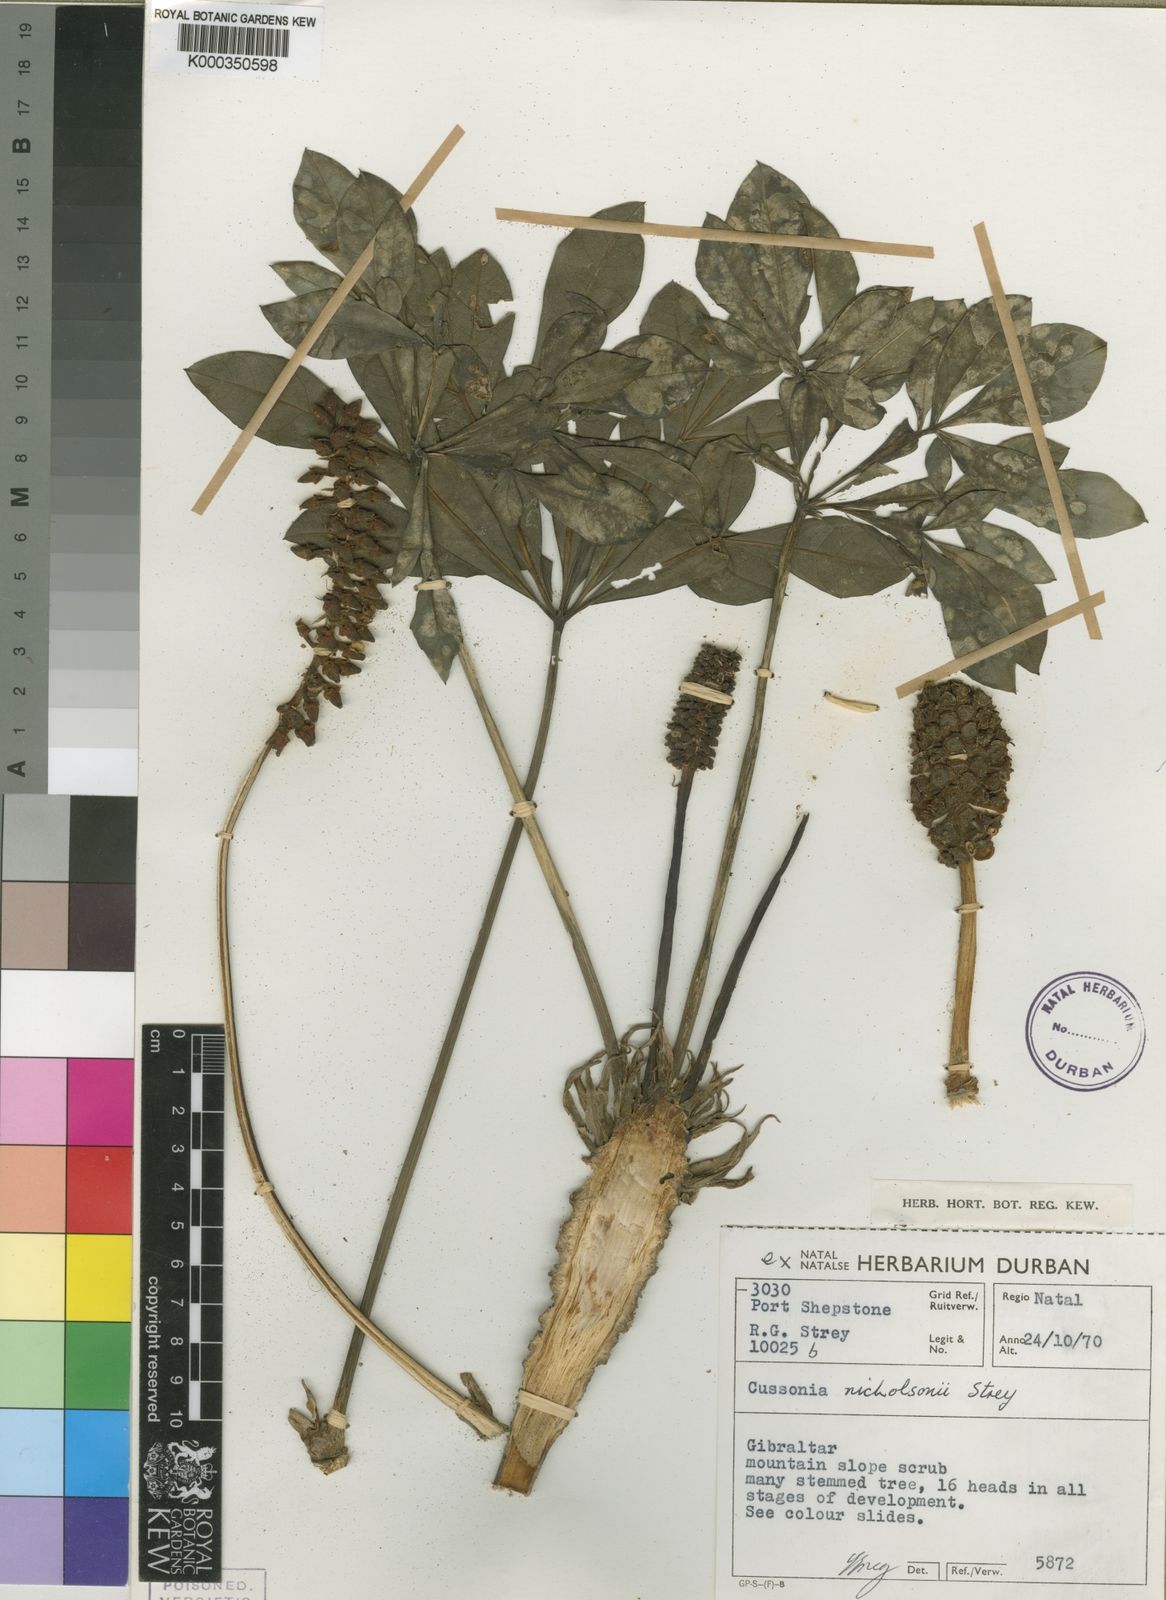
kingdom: Plantae
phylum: Tracheophyta
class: Magnoliopsida
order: Apiales
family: Araliaceae
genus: Cussonia
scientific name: Cussonia nicholsonii
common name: South coast cabbage-tree
